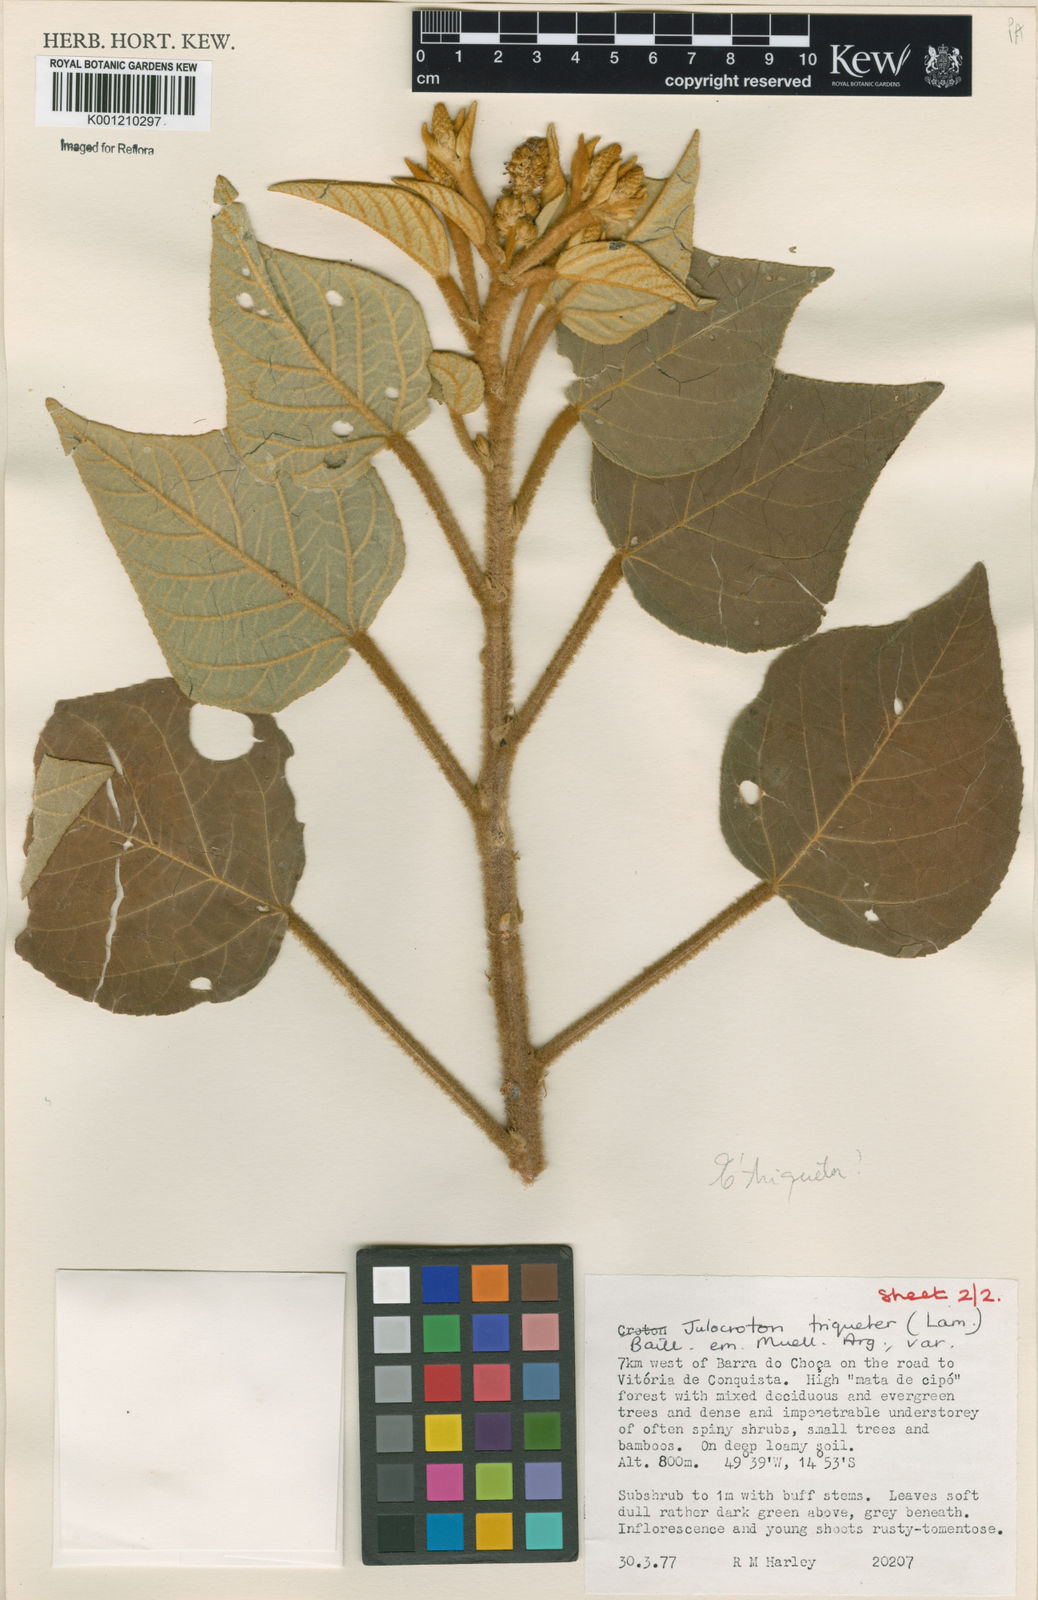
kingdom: Plantae
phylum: Tracheophyta
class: Magnoliopsida
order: Malpighiales
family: Euphorbiaceae
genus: Croton
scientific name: Croton triqueter
